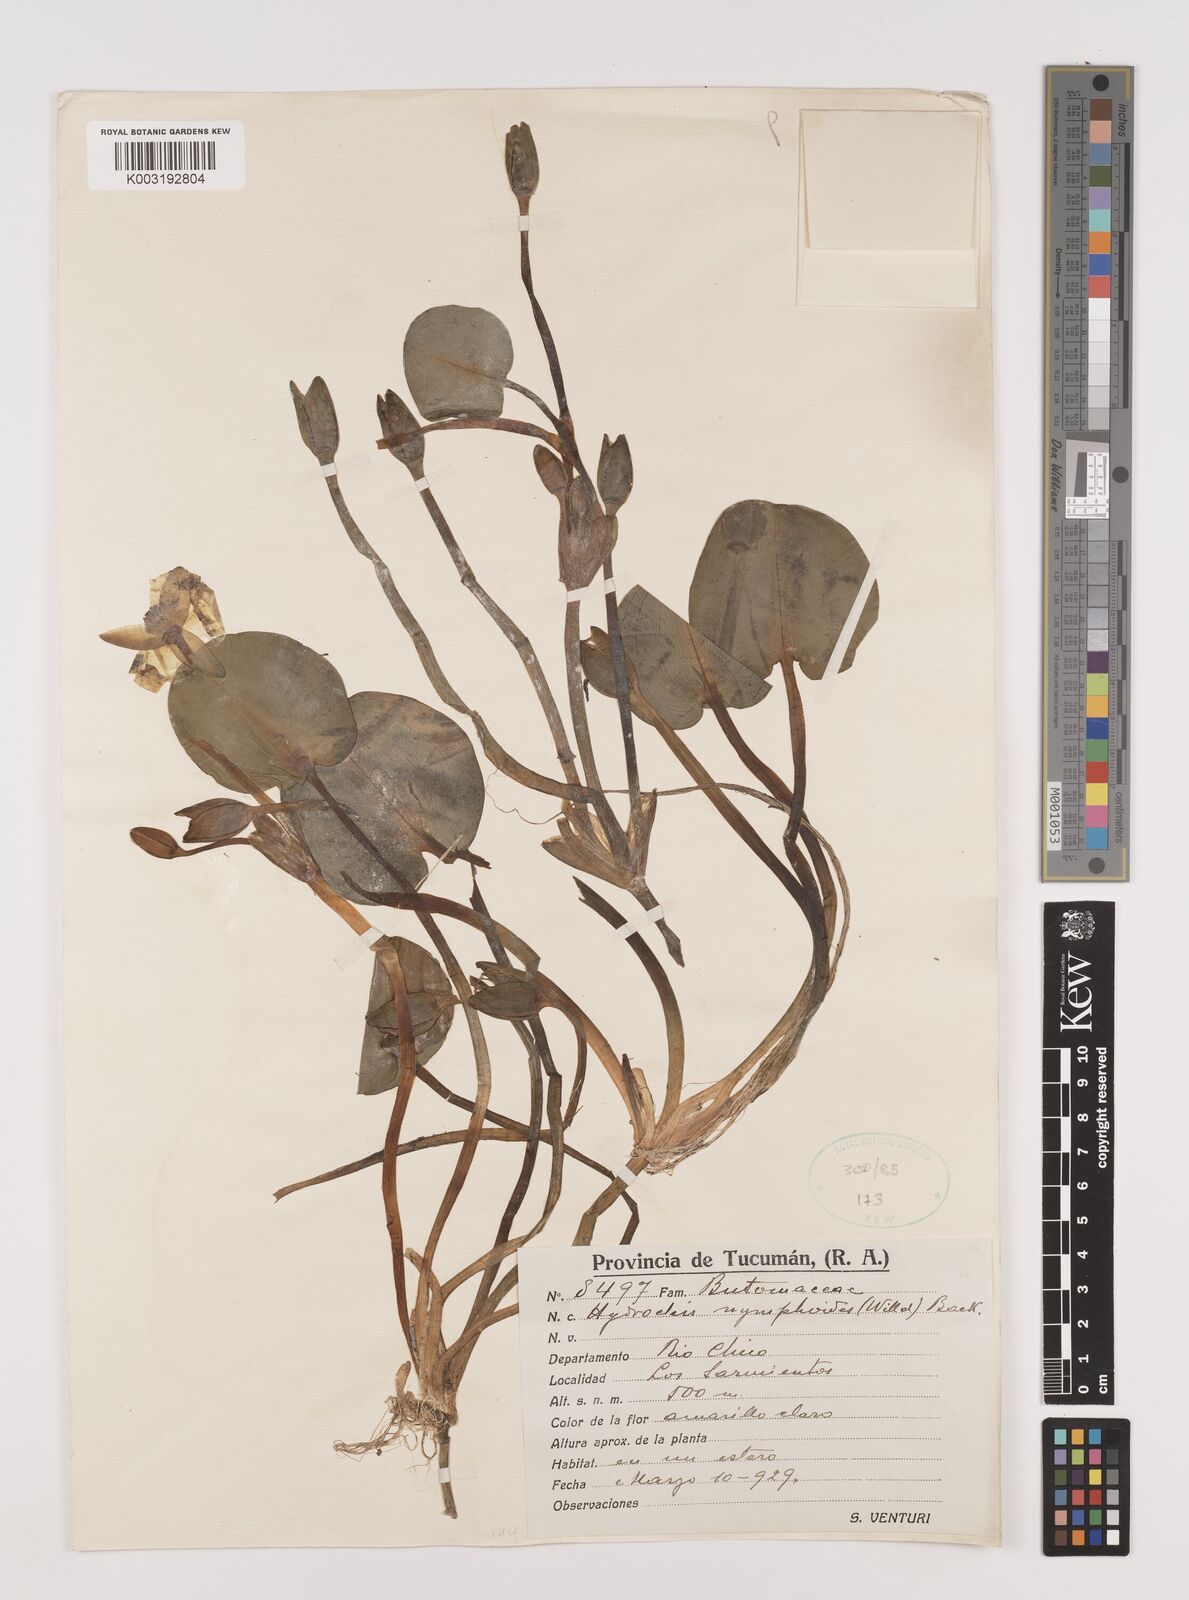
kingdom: Plantae
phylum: Tracheophyta
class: Liliopsida
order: Alismatales
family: Alismataceae
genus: Hydrocleys
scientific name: Hydrocleys nymphoides
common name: Water-poppy
